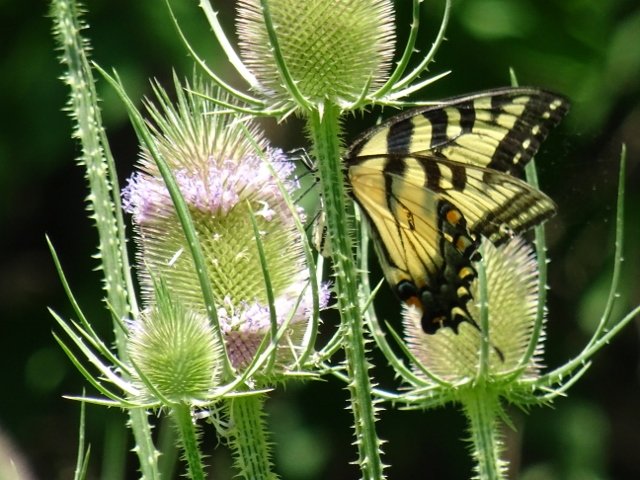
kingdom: Animalia
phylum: Arthropoda
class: Insecta
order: Lepidoptera
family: Papilionidae
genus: Pterourus
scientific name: Pterourus glaucus
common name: Eastern Tiger Swallowtail
